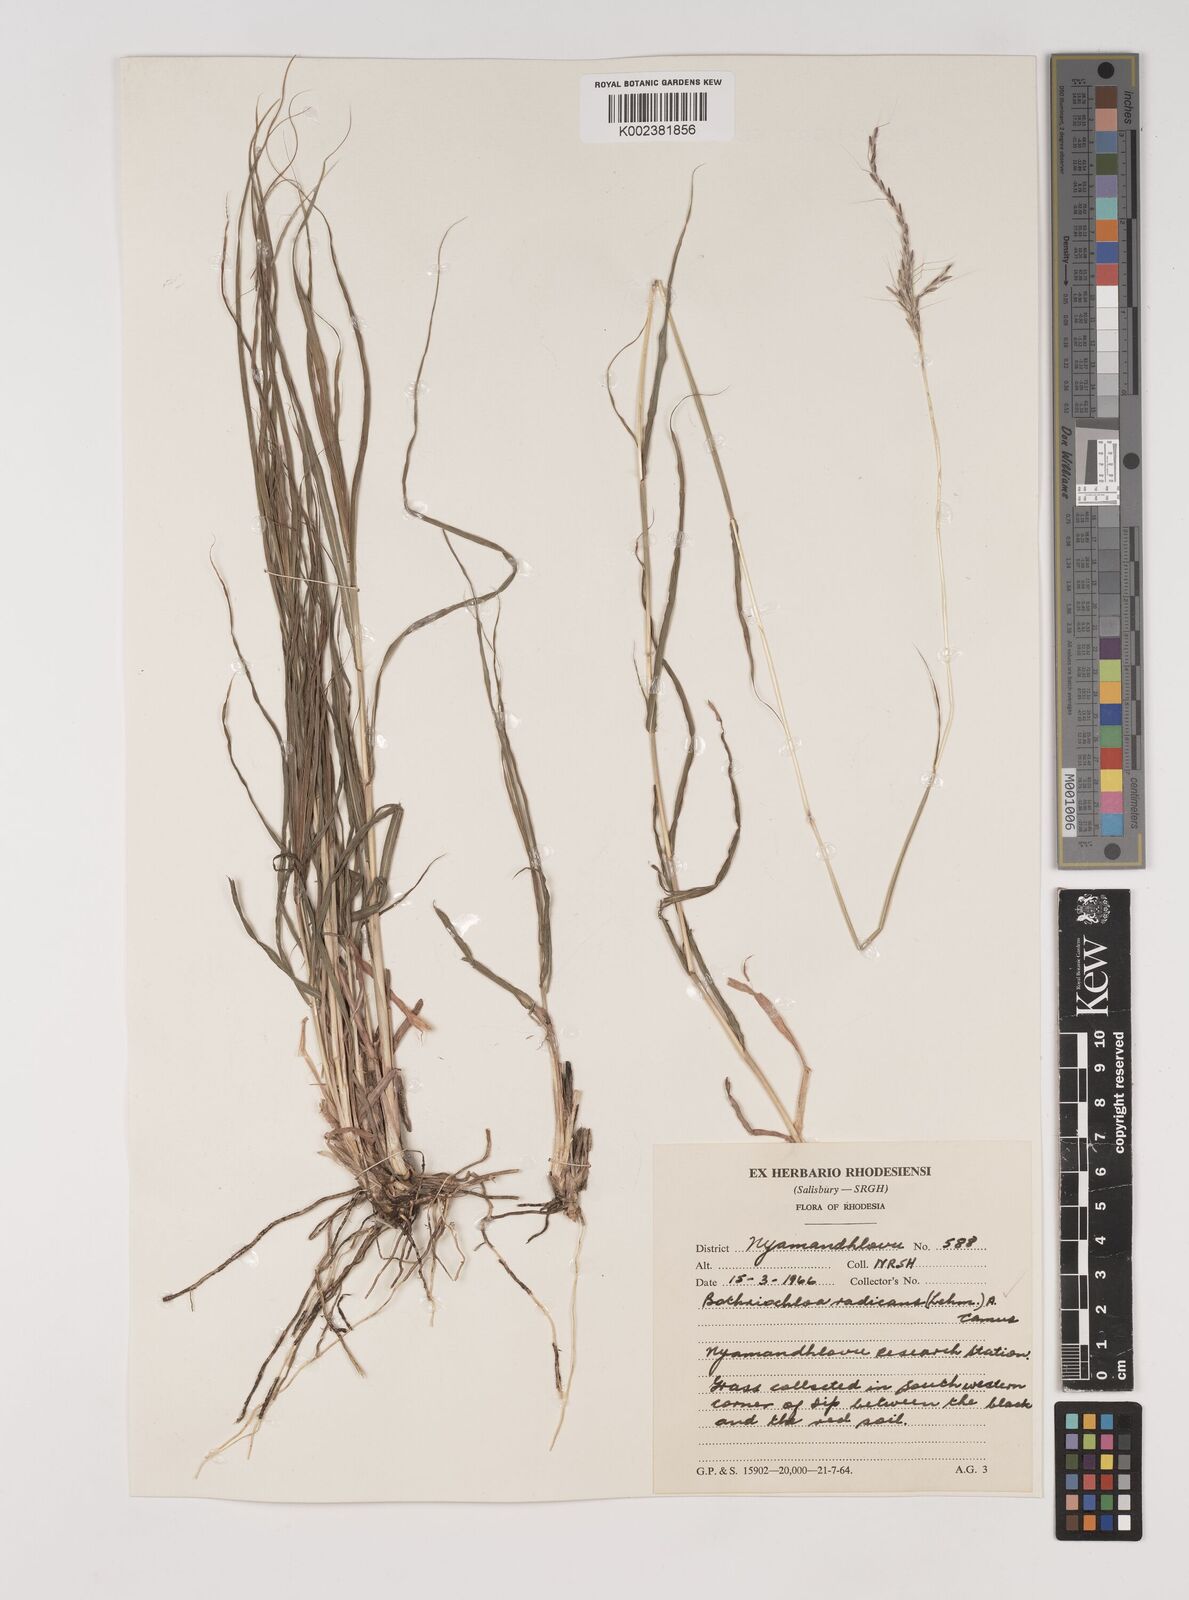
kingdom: Plantae
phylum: Tracheophyta
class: Liliopsida
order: Poales
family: Poaceae
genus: Bothriochloa
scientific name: Bothriochloa radicans
